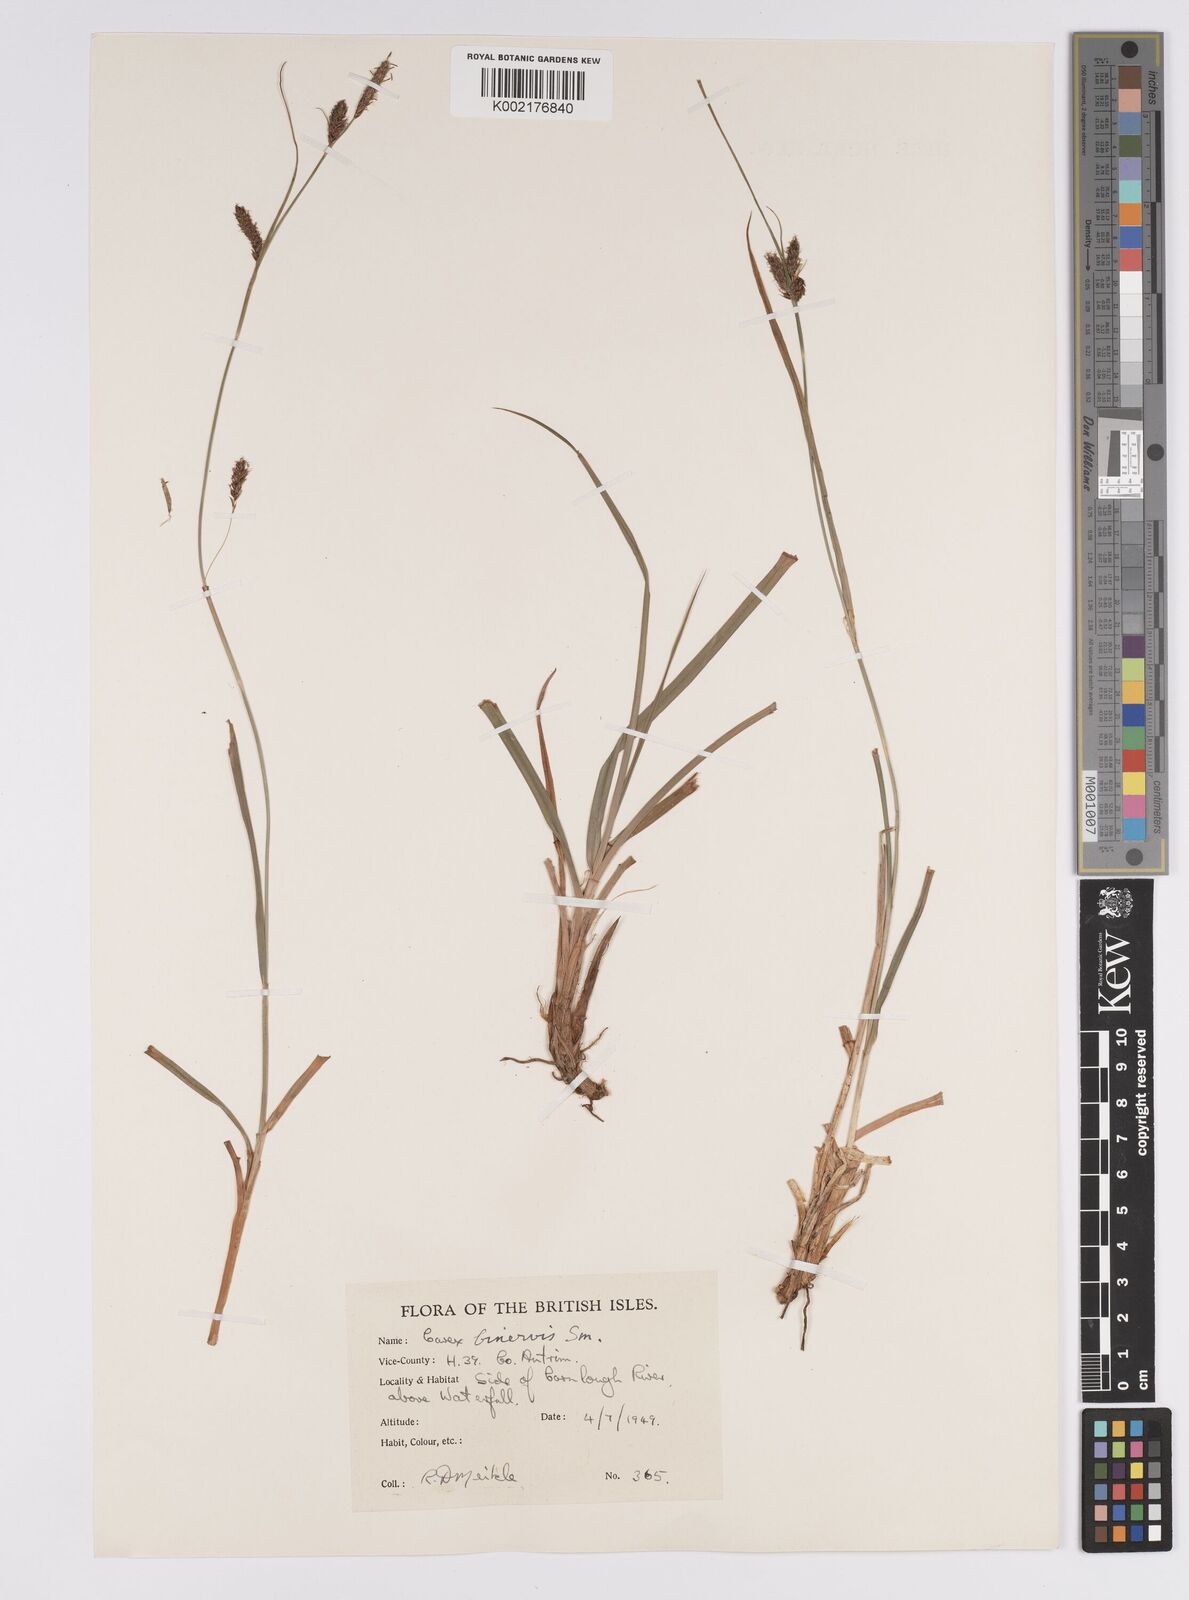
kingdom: Plantae
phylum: Tracheophyta
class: Liliopsida
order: Poales
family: Cyperaceae
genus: Carex
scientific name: Carex binervis
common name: Green-ribbed sedge
